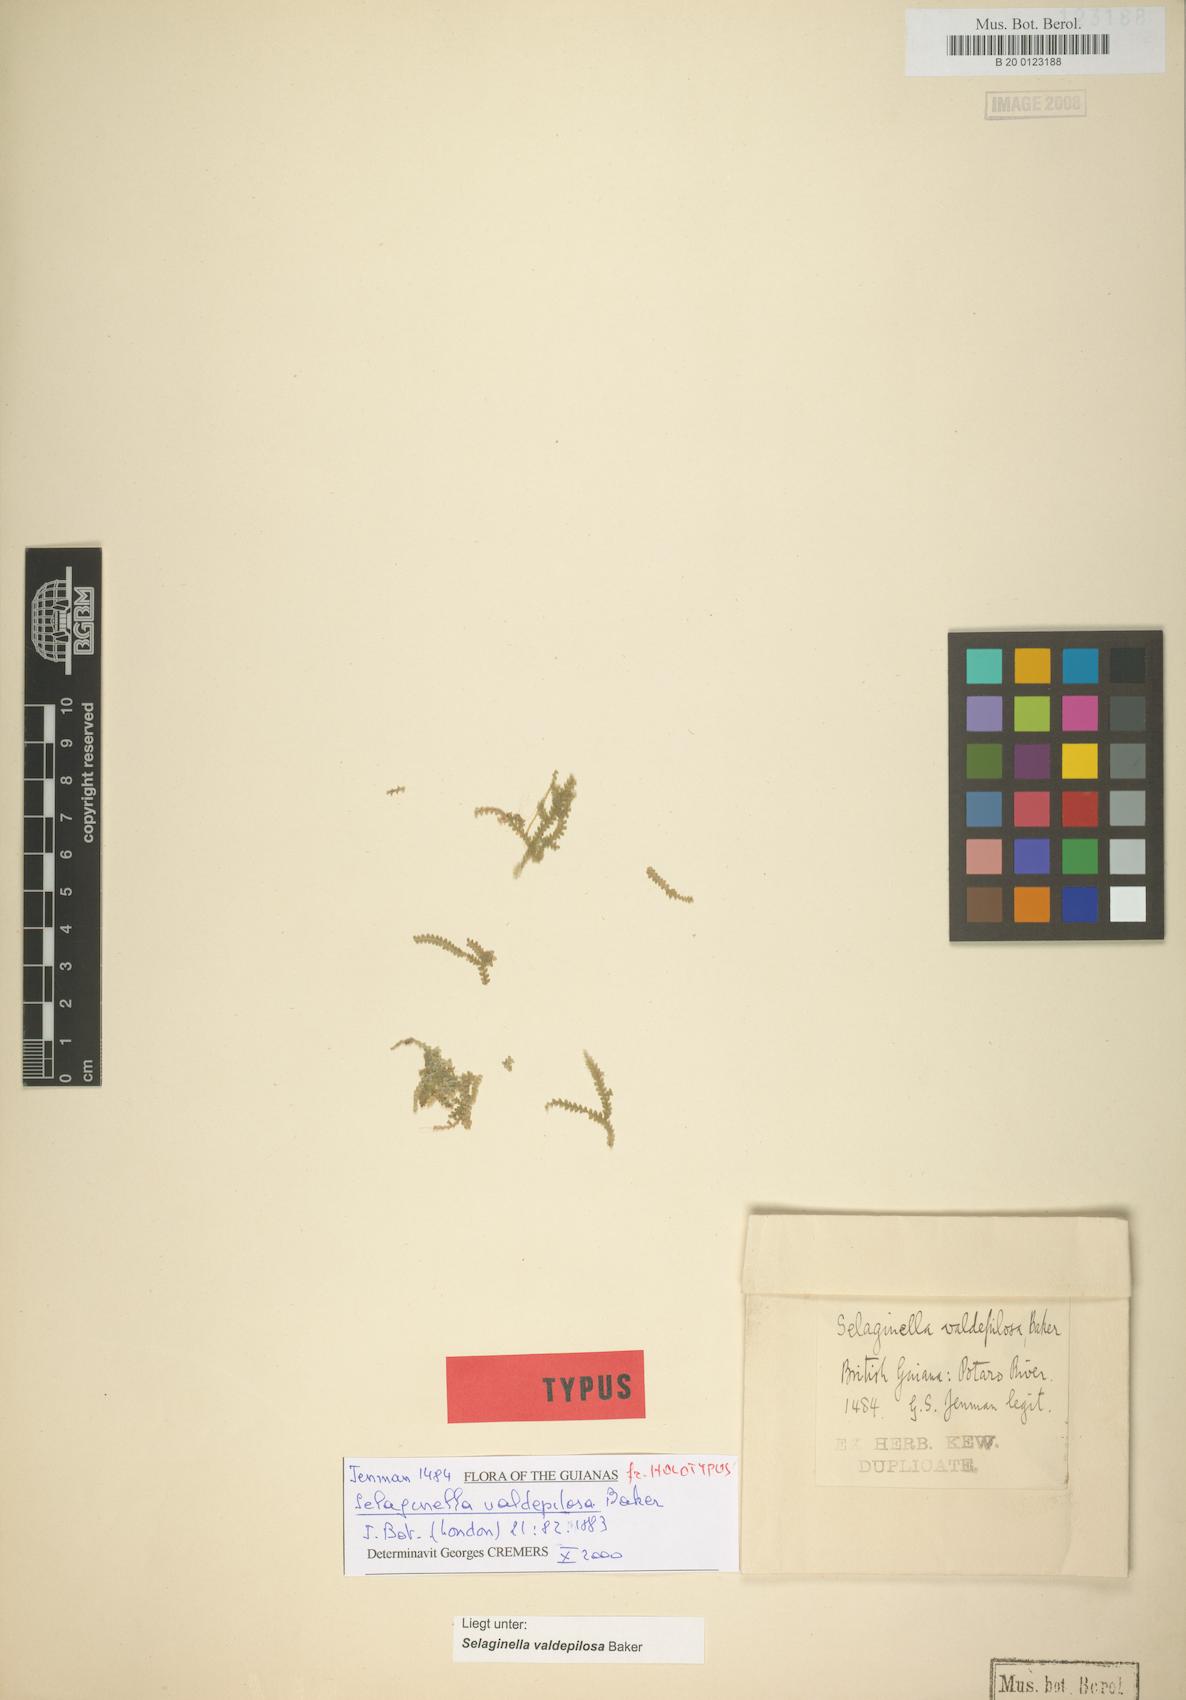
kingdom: Plantae
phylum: Tracheophyta
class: Lycopodiopsida
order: Selaginellales
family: Selaginellaceae
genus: Selaginella
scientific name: Selaginella valdepilosa
